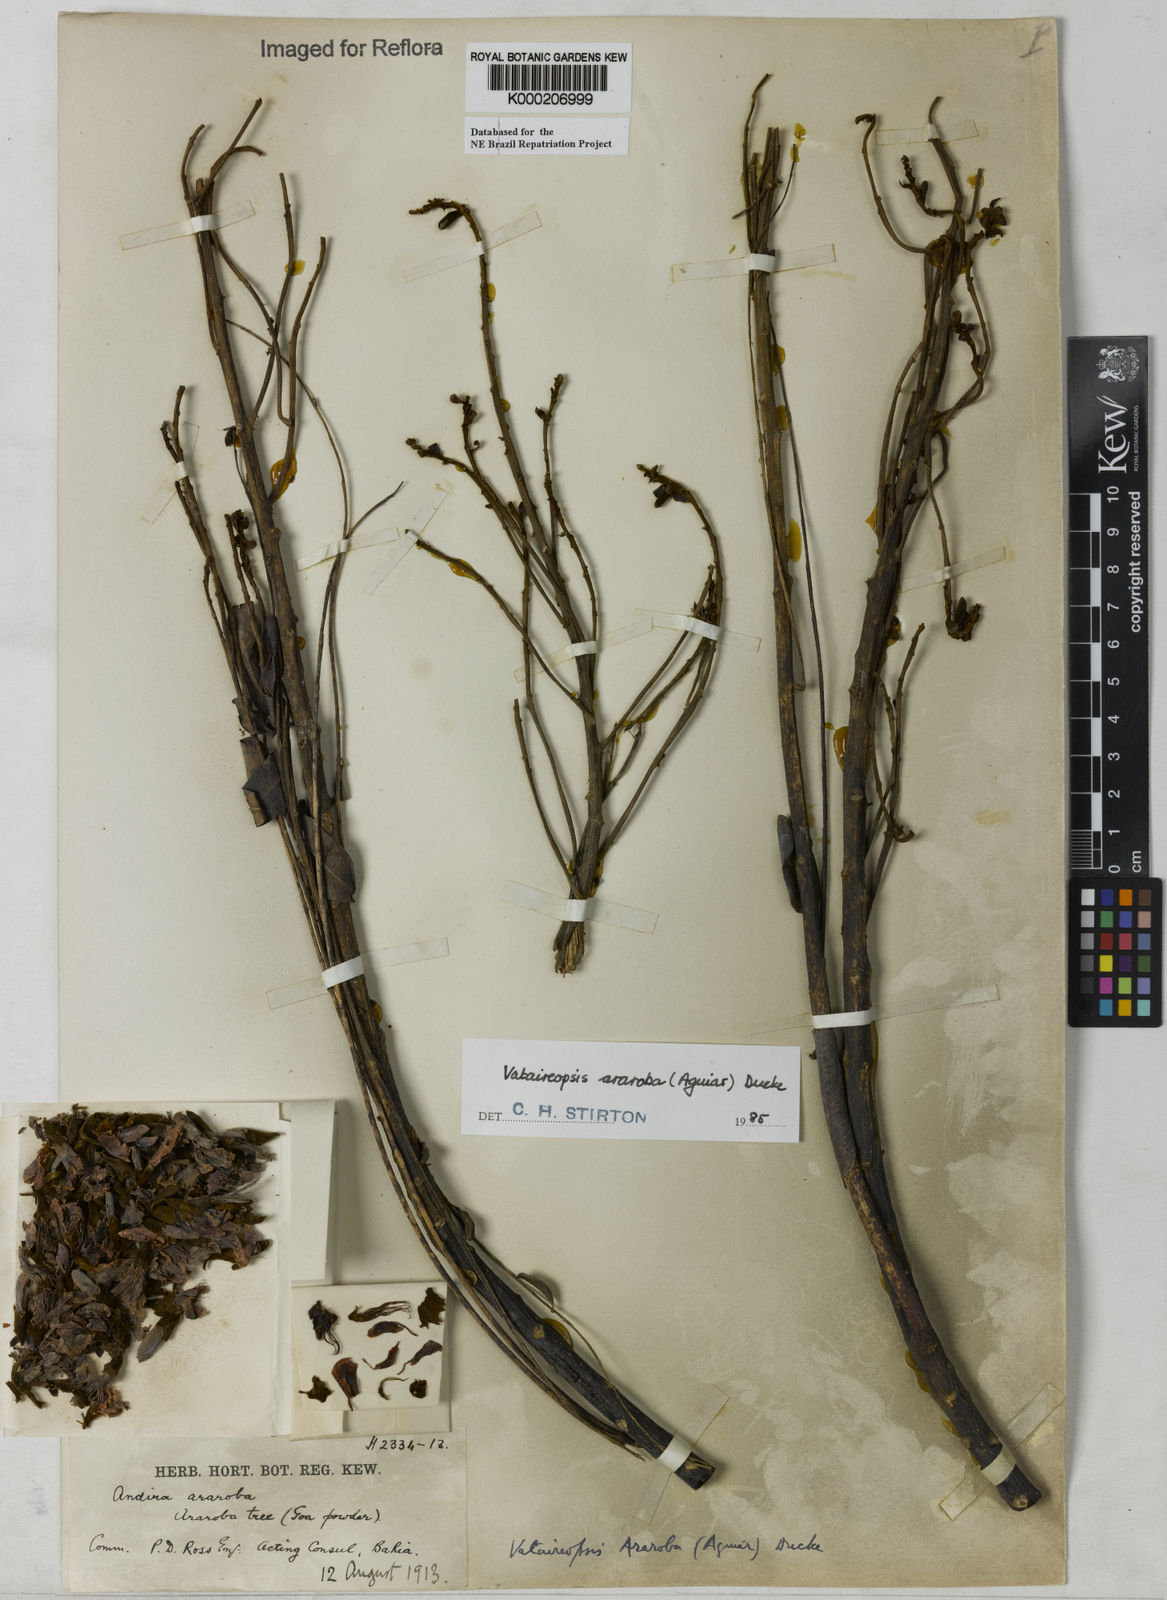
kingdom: Plantae
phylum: Tracheophyta
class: Magnoliopsida
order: Fabales
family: Fabaceae
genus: Vataireopsis
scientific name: Vataireopsis araroba
